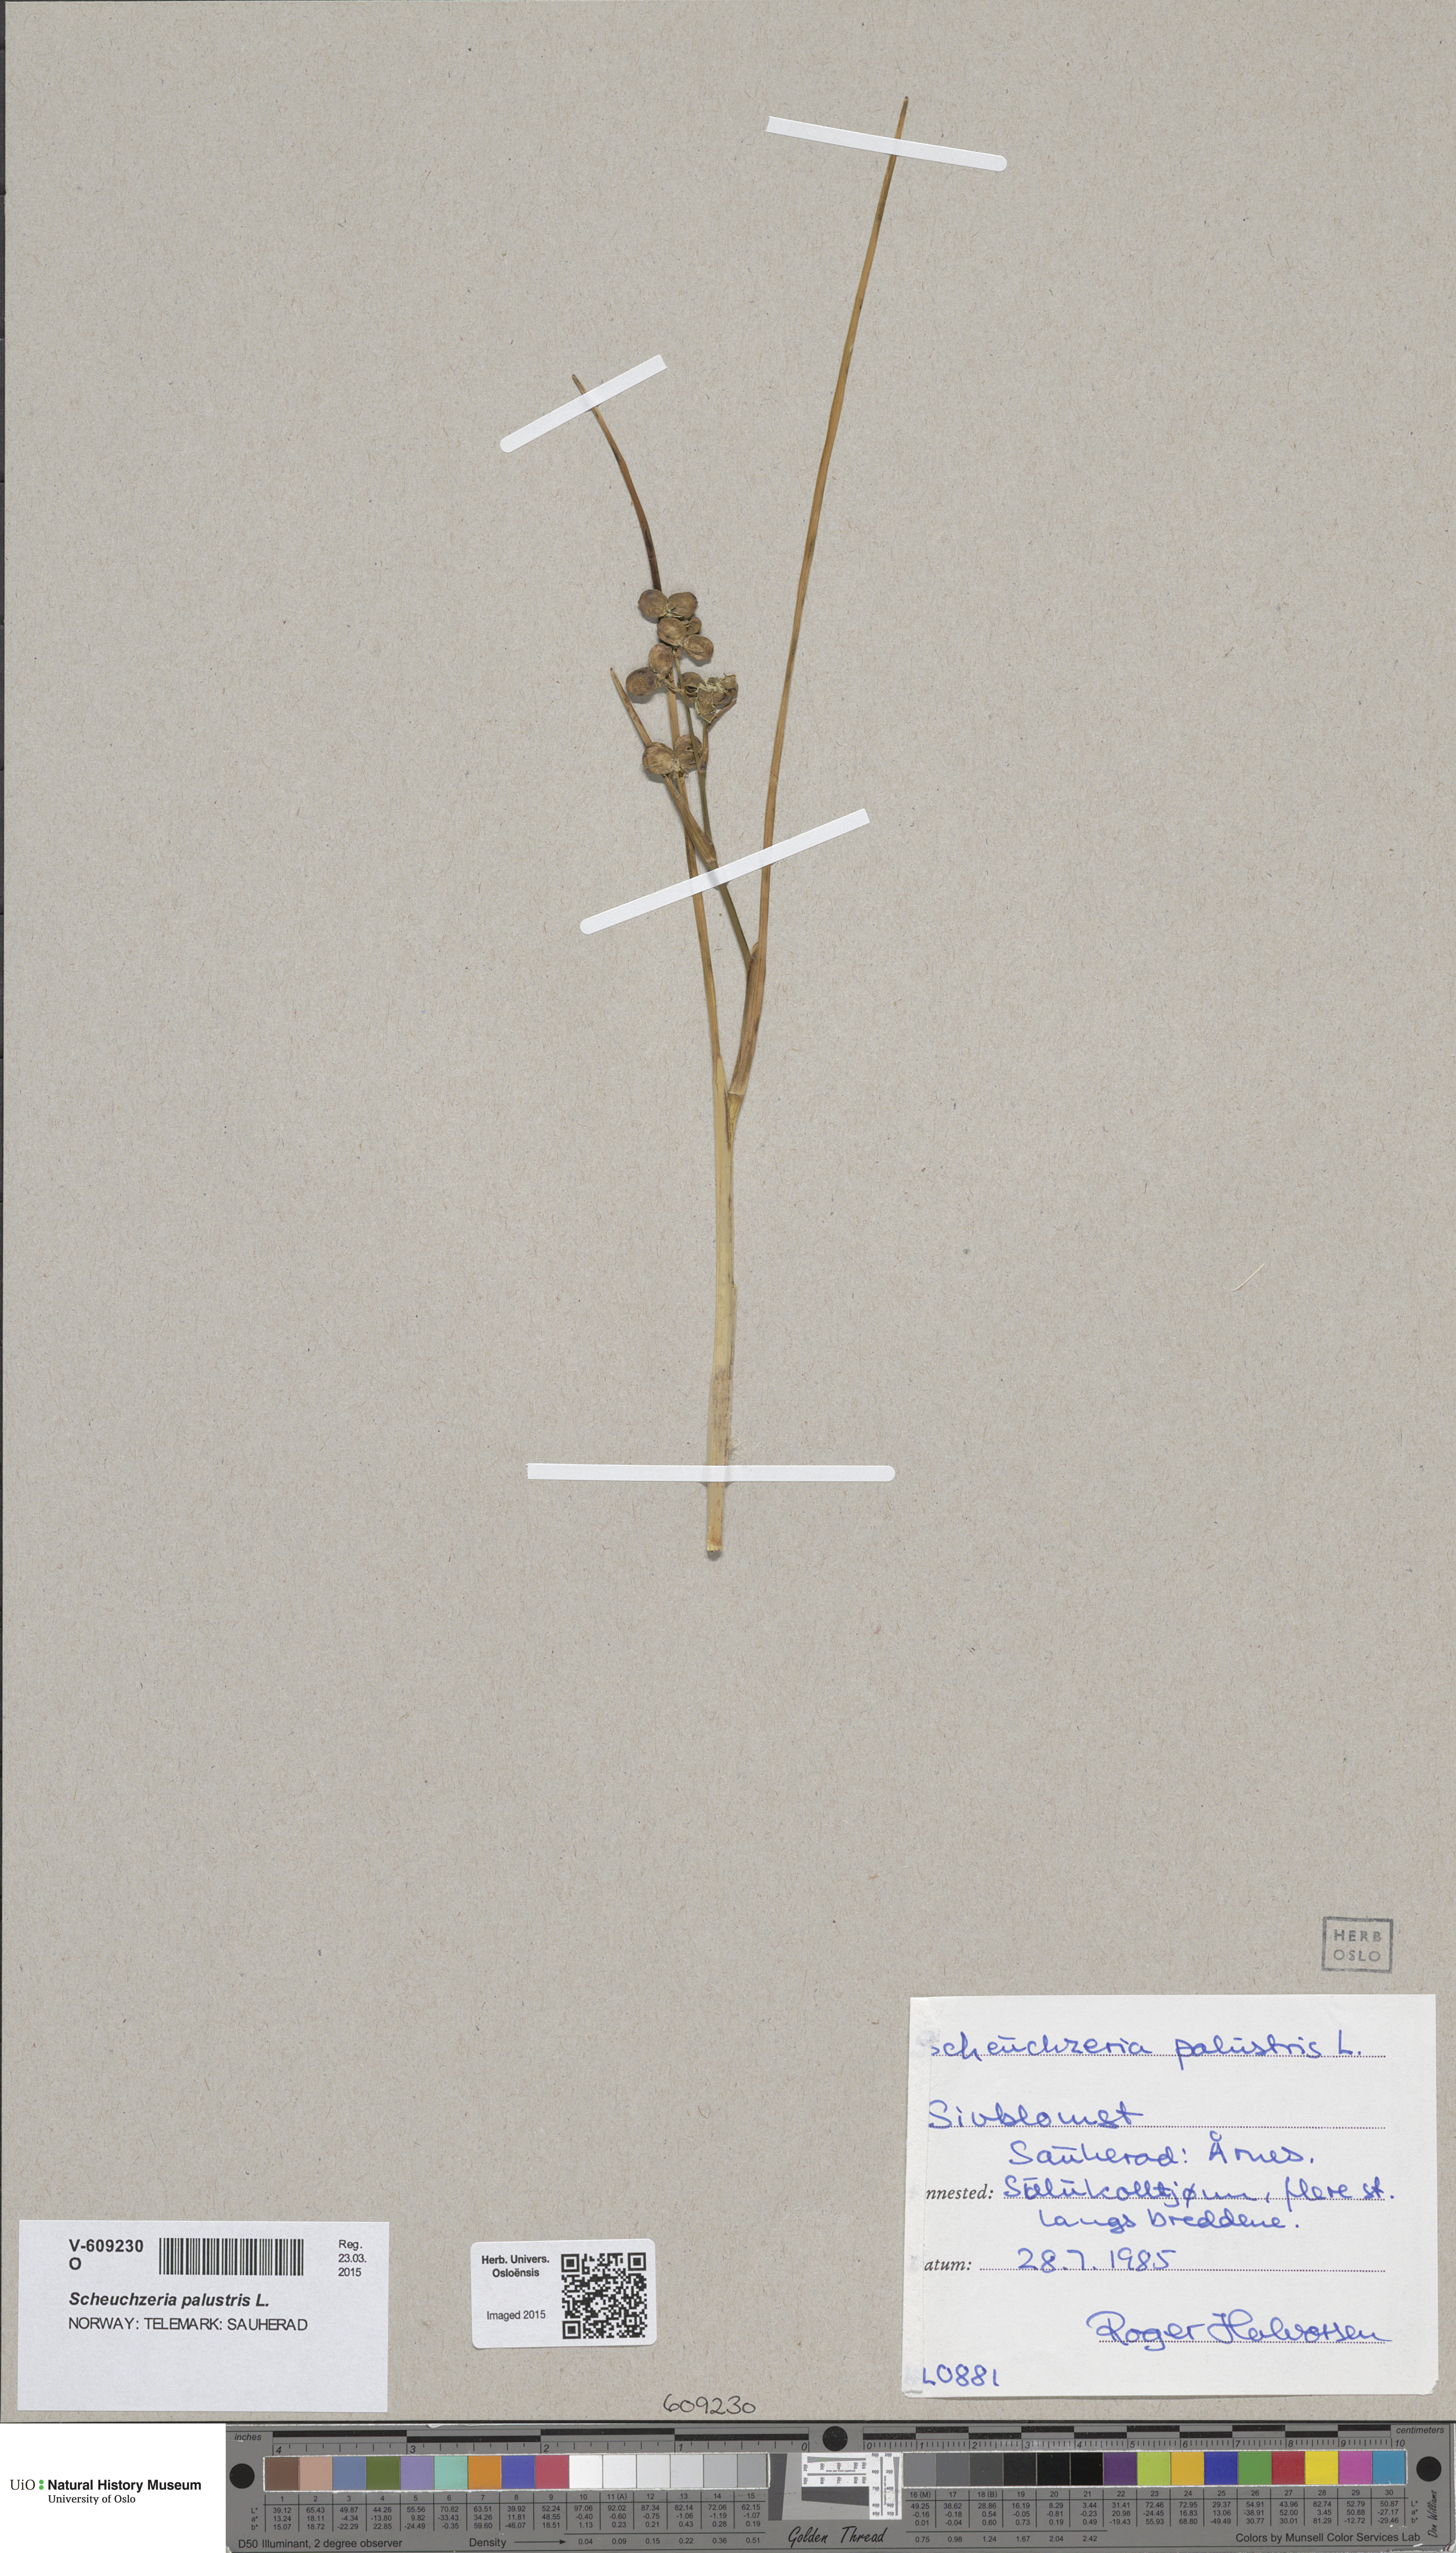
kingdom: Plantae
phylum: Tracheophyta
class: Liliopsida
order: Alismatales
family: Scheuchzeriaceae
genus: Scheuchzeria
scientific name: Scheuchzeria palustris
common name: Rannoch-rush
